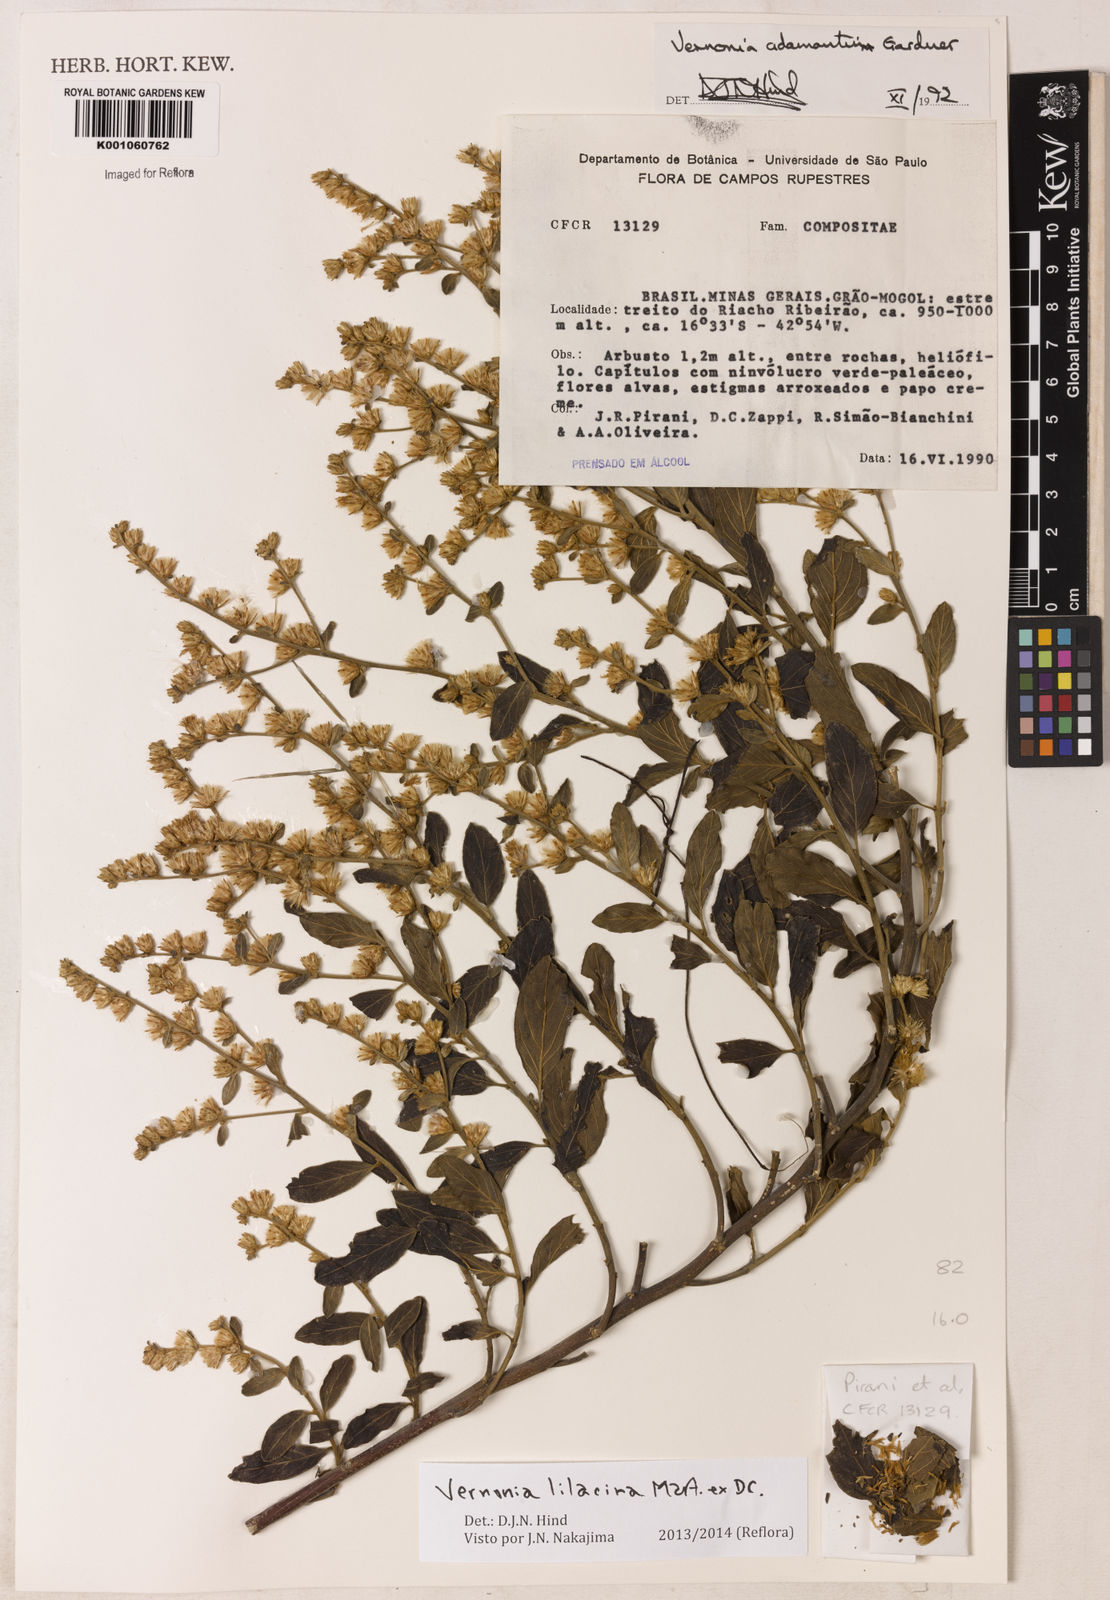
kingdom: Plantae
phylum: Tracheophyta
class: Magnoliopsida
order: Asterales
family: Asteraceae
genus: Lepidaploa
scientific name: Lepidaploa lilacina
